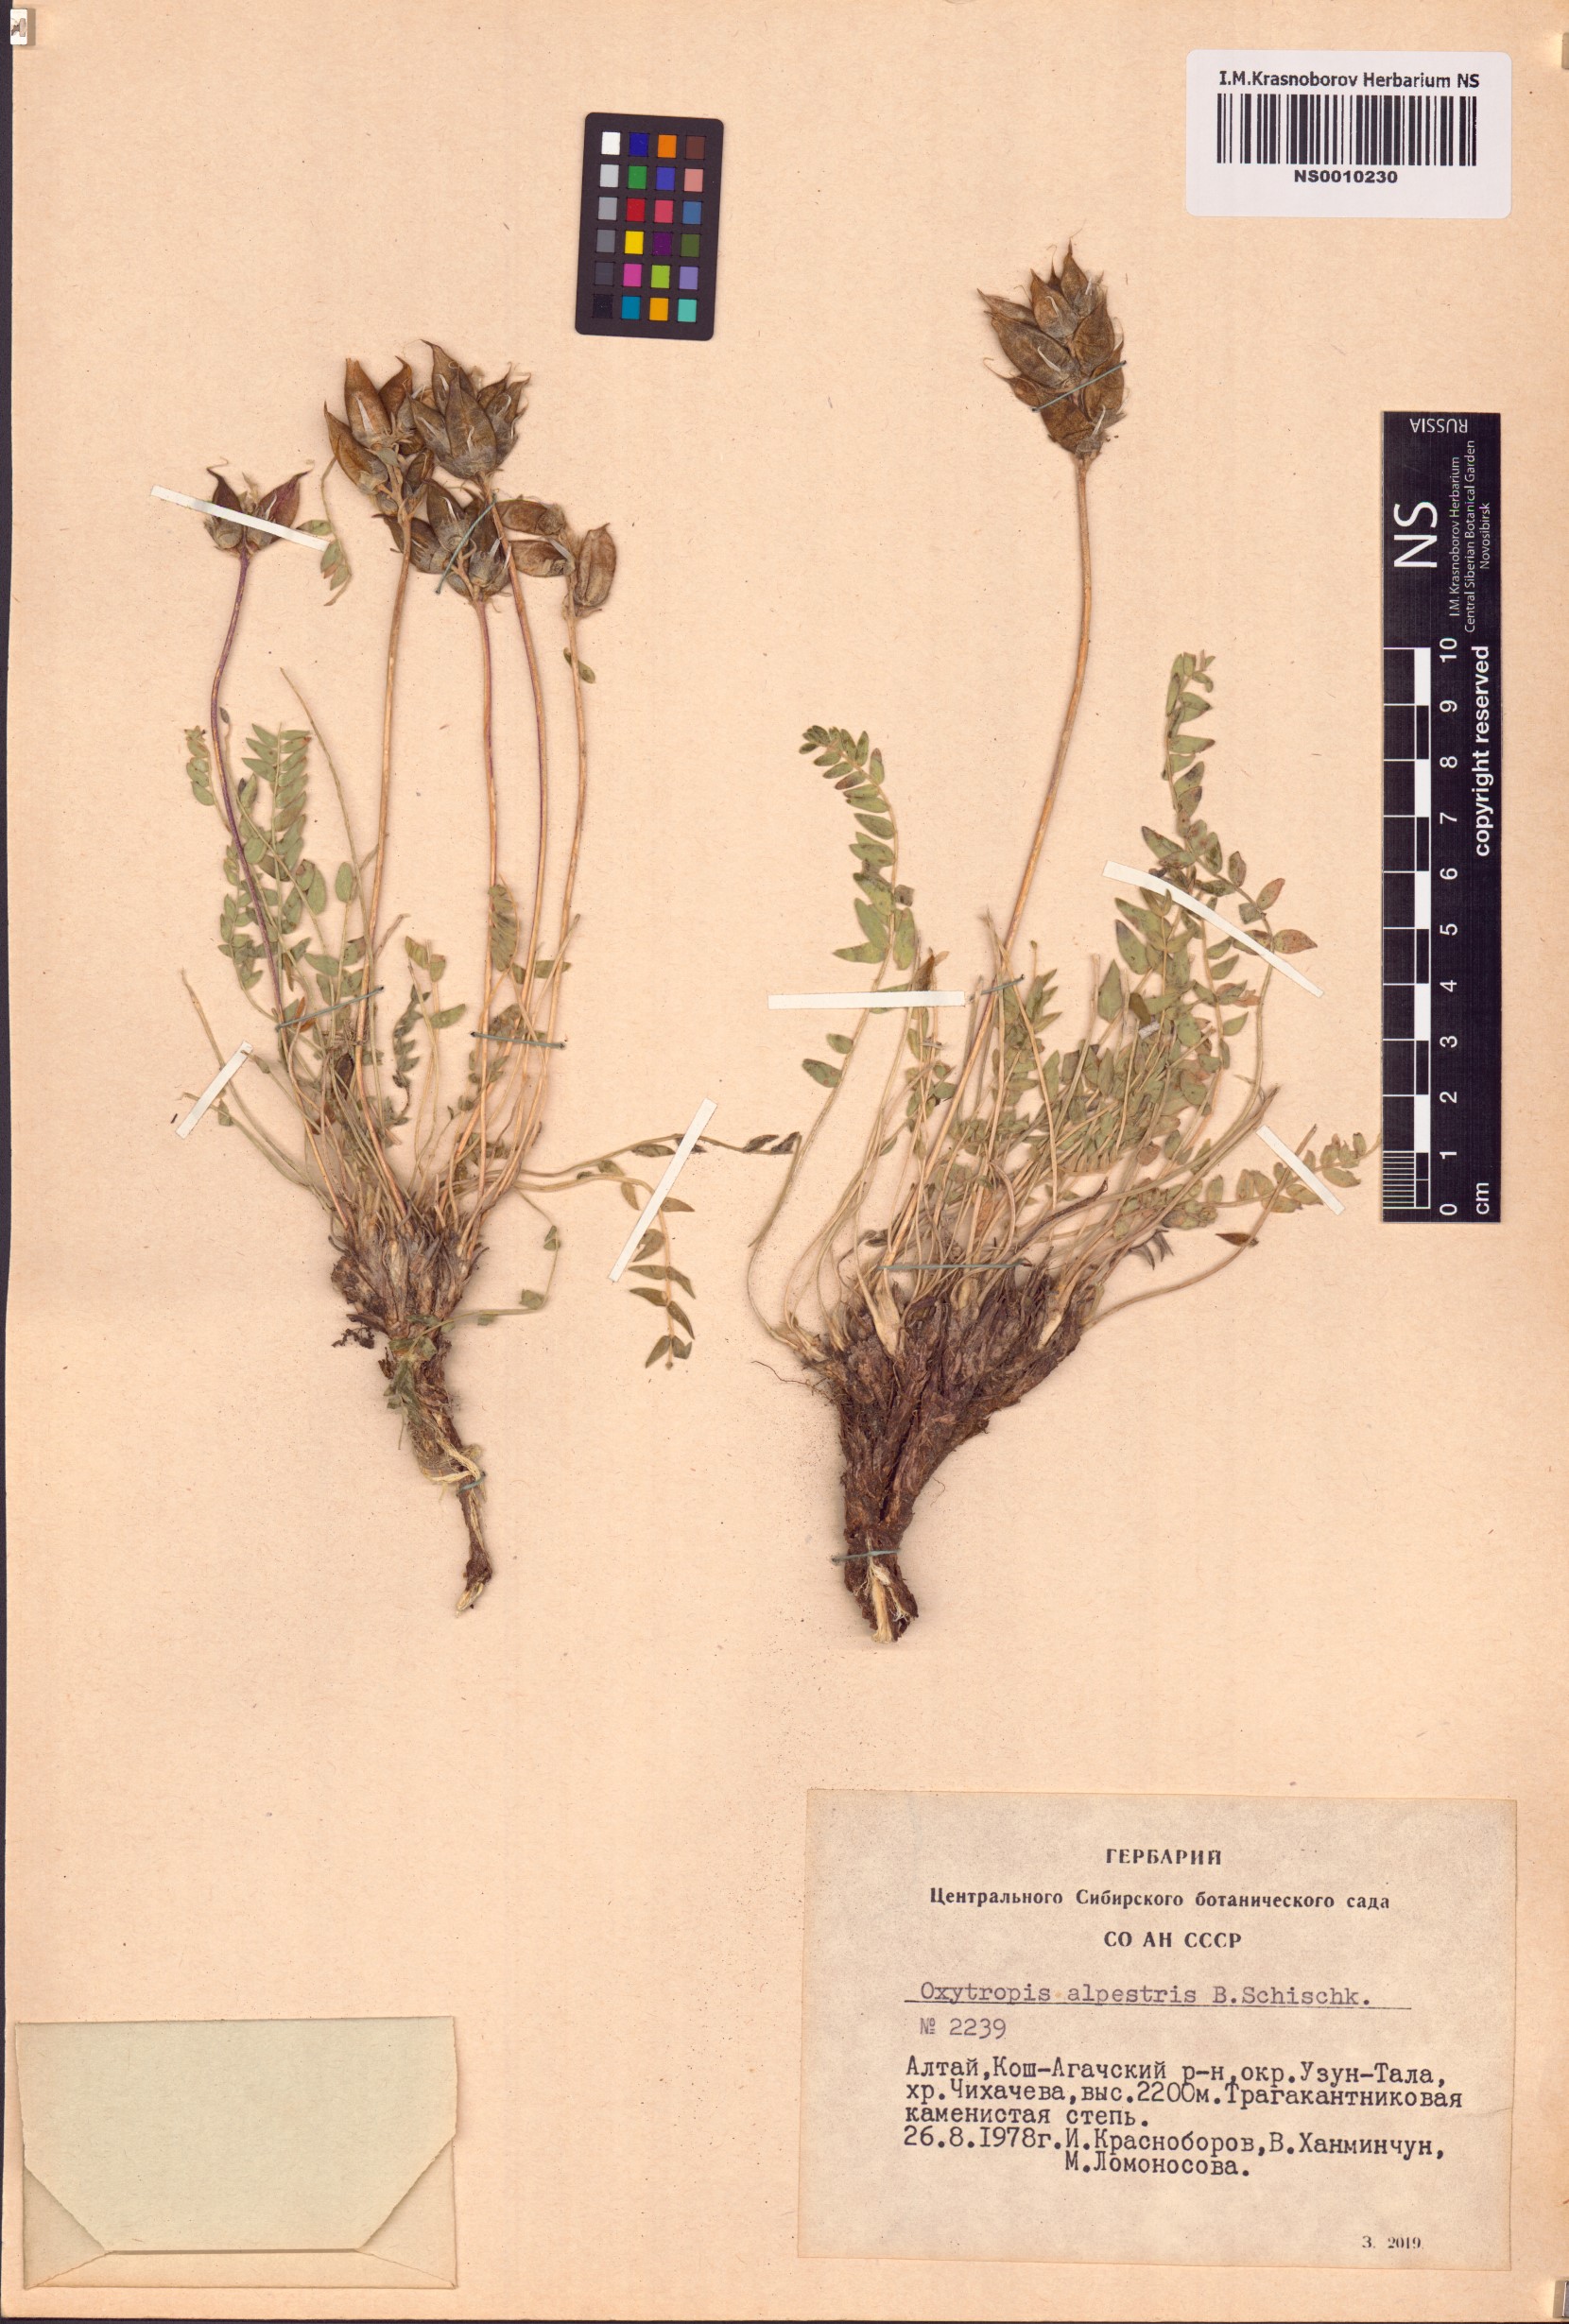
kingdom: Plantae
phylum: Tracheophyta
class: Magnoliopsida
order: Fabales
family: Fabaceae
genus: Oxytropis
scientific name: Oxytropis alpestris
